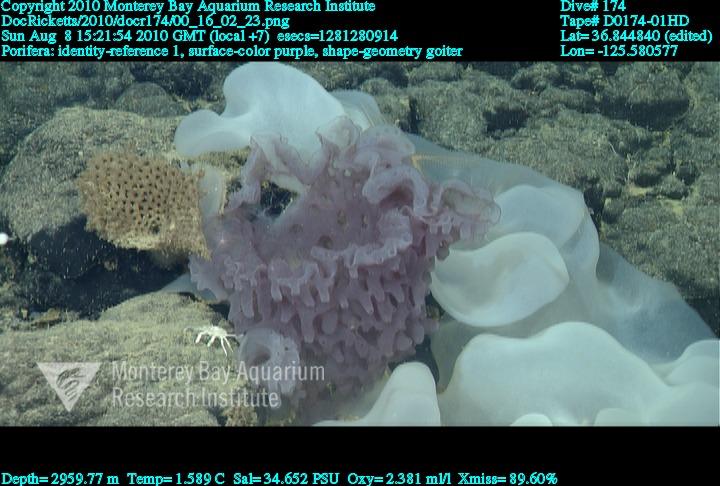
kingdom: Animalia
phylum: Porifera
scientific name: Porifera
